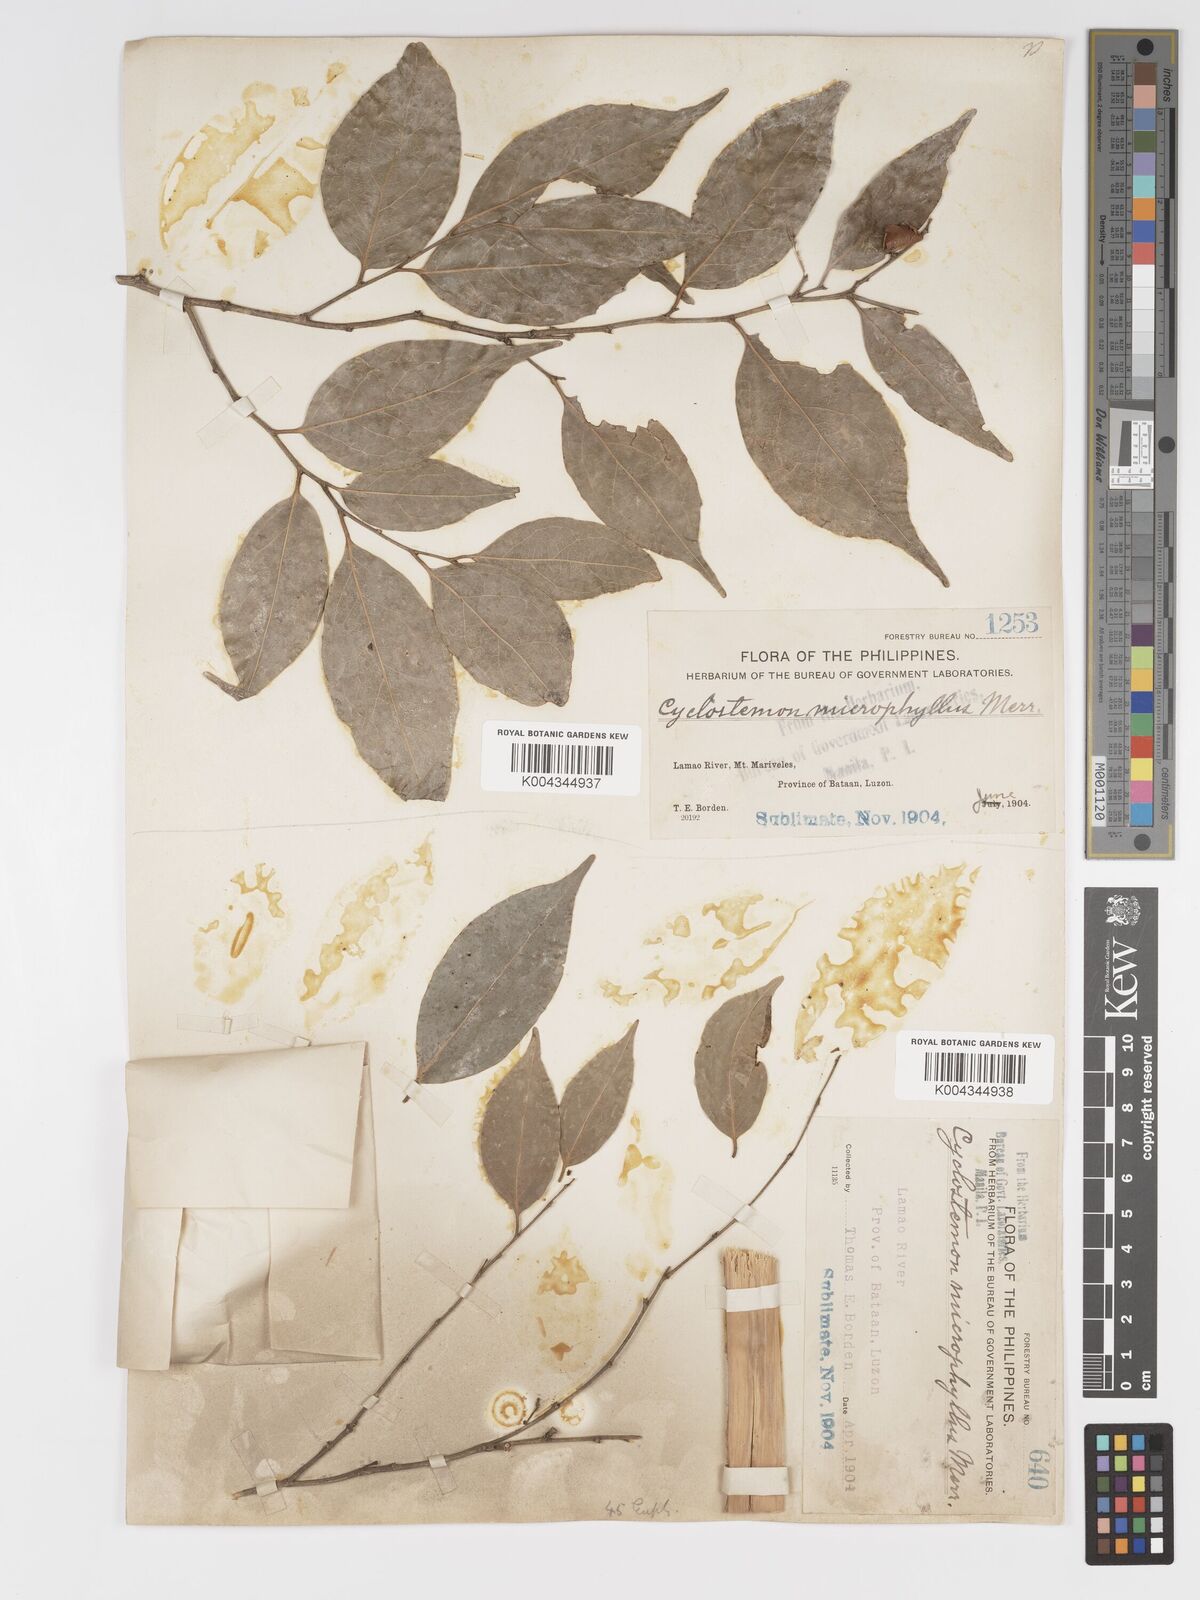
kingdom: Plantae
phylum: Tracheophyta
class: Magnoliopsida
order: Malpighiales
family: Putranjivaceae
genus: Drypetes
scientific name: Drypetes microphylla
